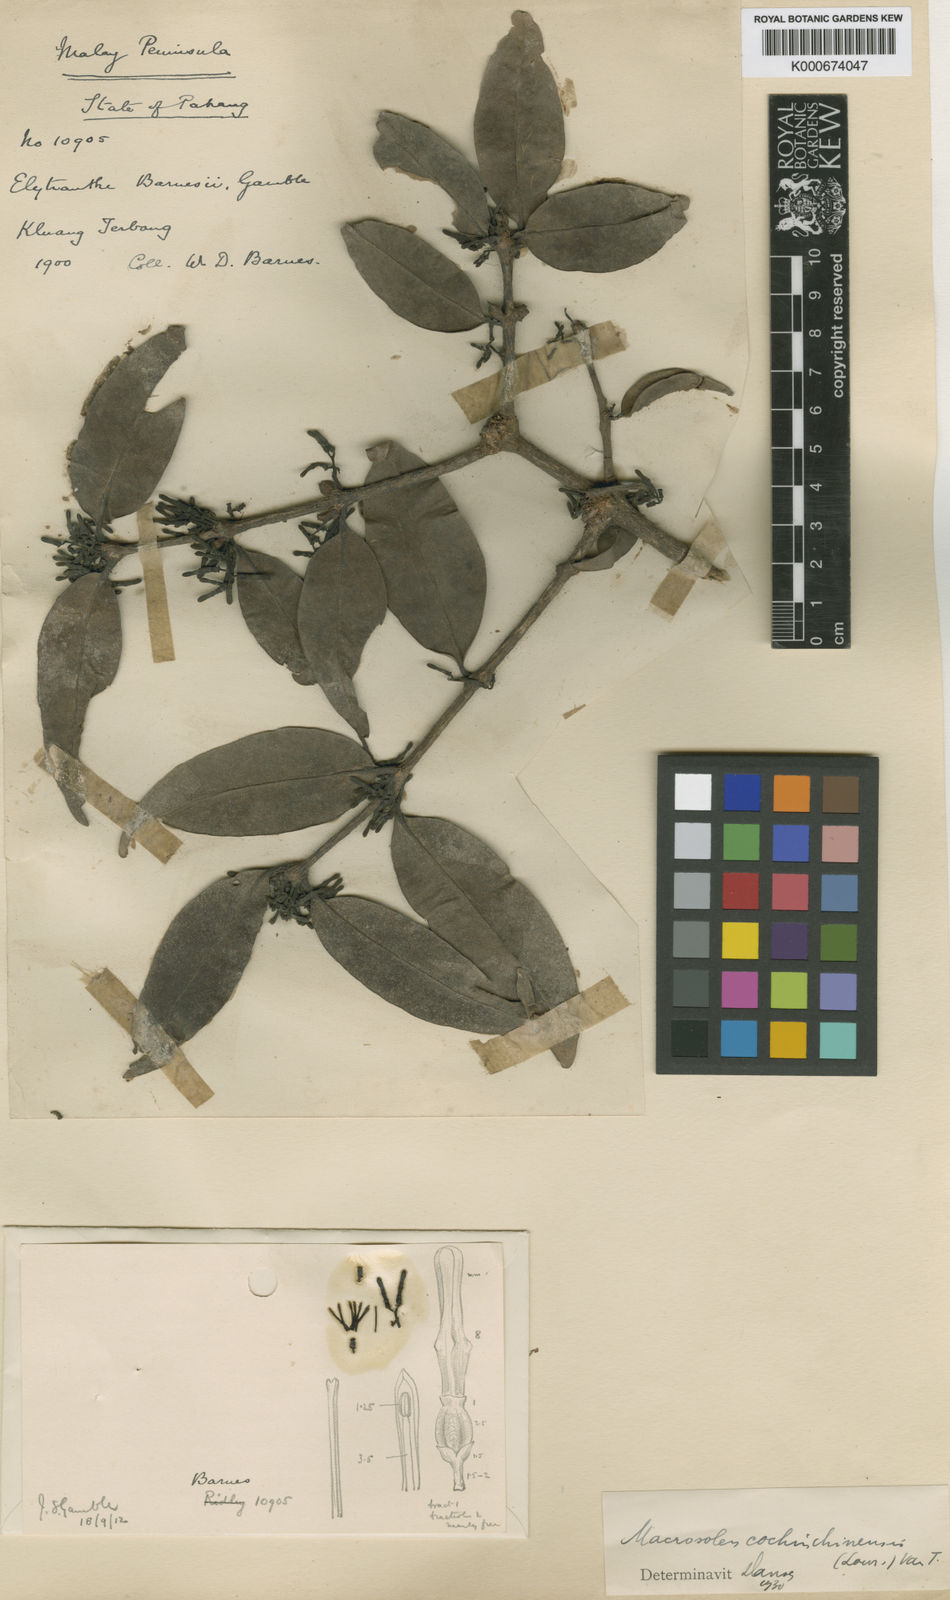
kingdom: Plantae
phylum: Tracheophyta
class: Magnoliopsida
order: Santalales
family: Loranthaceae
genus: Macrosolen
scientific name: Macrosolen cochinchinensis
